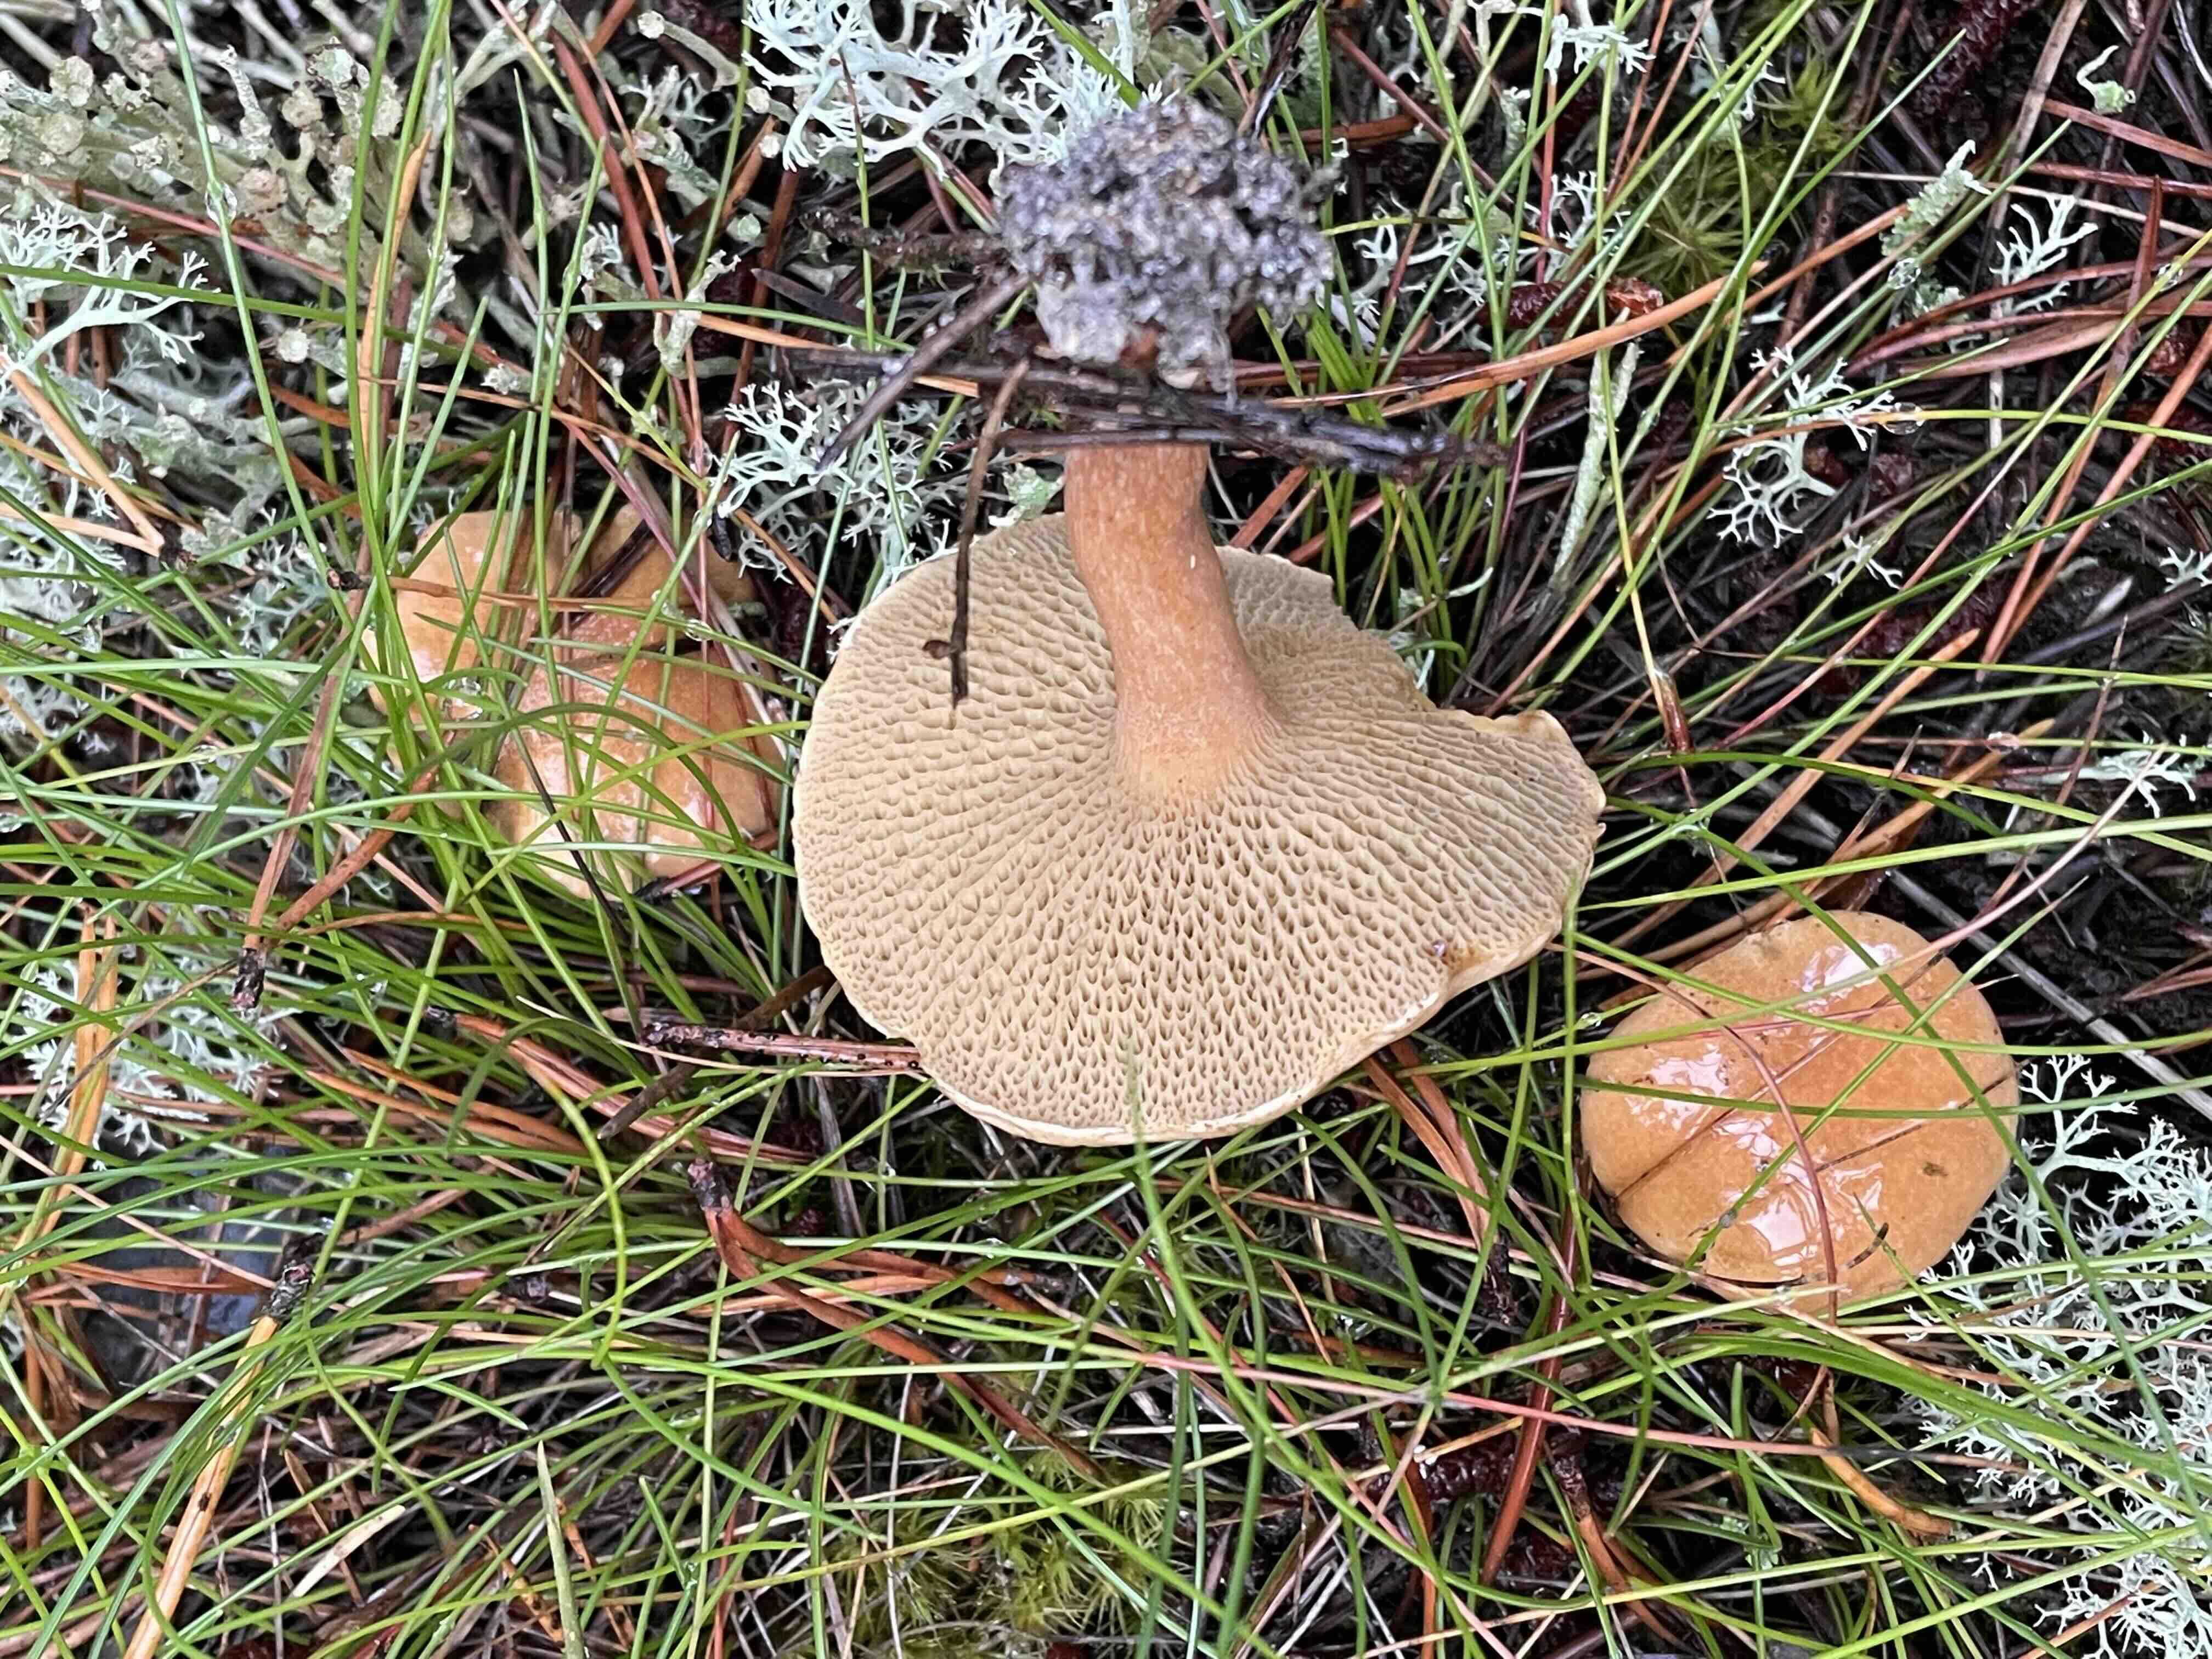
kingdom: Fungi
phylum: Basidiomycota
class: Agaricomycetes
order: Boletales
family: Suillaceae
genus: Suillus
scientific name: Suillus bovinus
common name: grovporet slimrørhat
